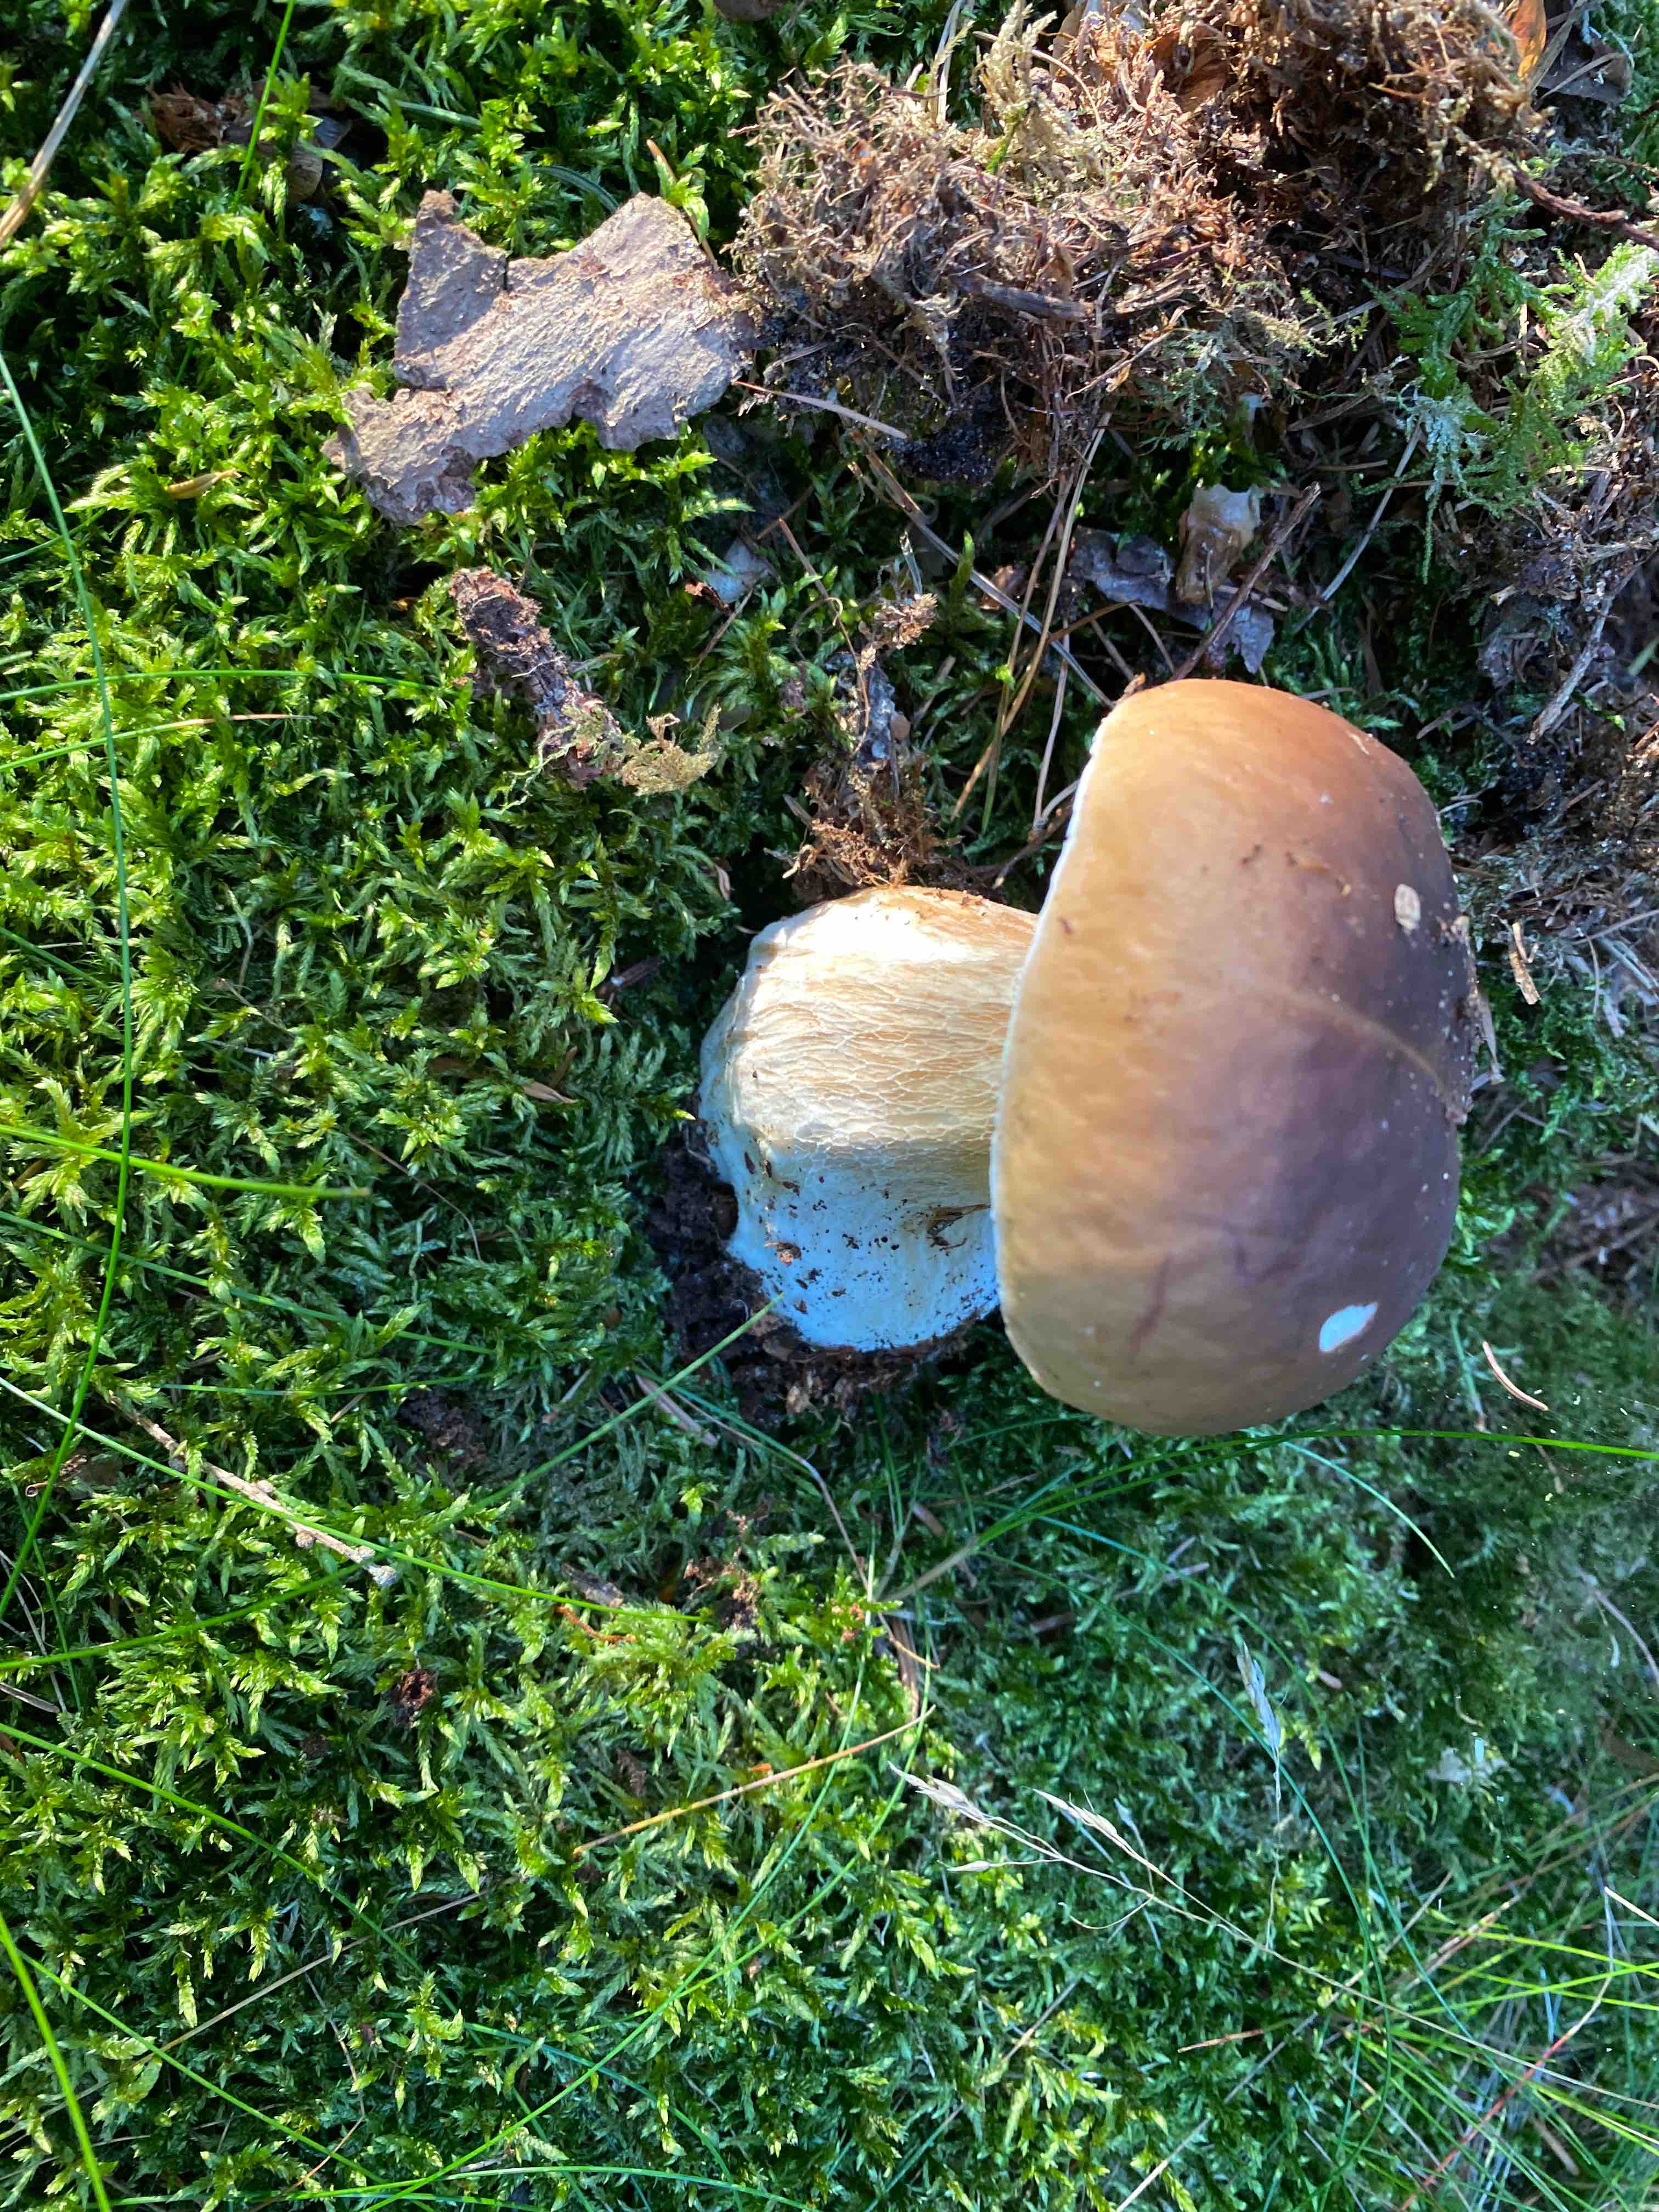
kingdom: Fungi
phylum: Basidiomycota
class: Agaricomycetes
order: Boletales
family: Boletaceae
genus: Boletus
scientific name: Boletus edulis
